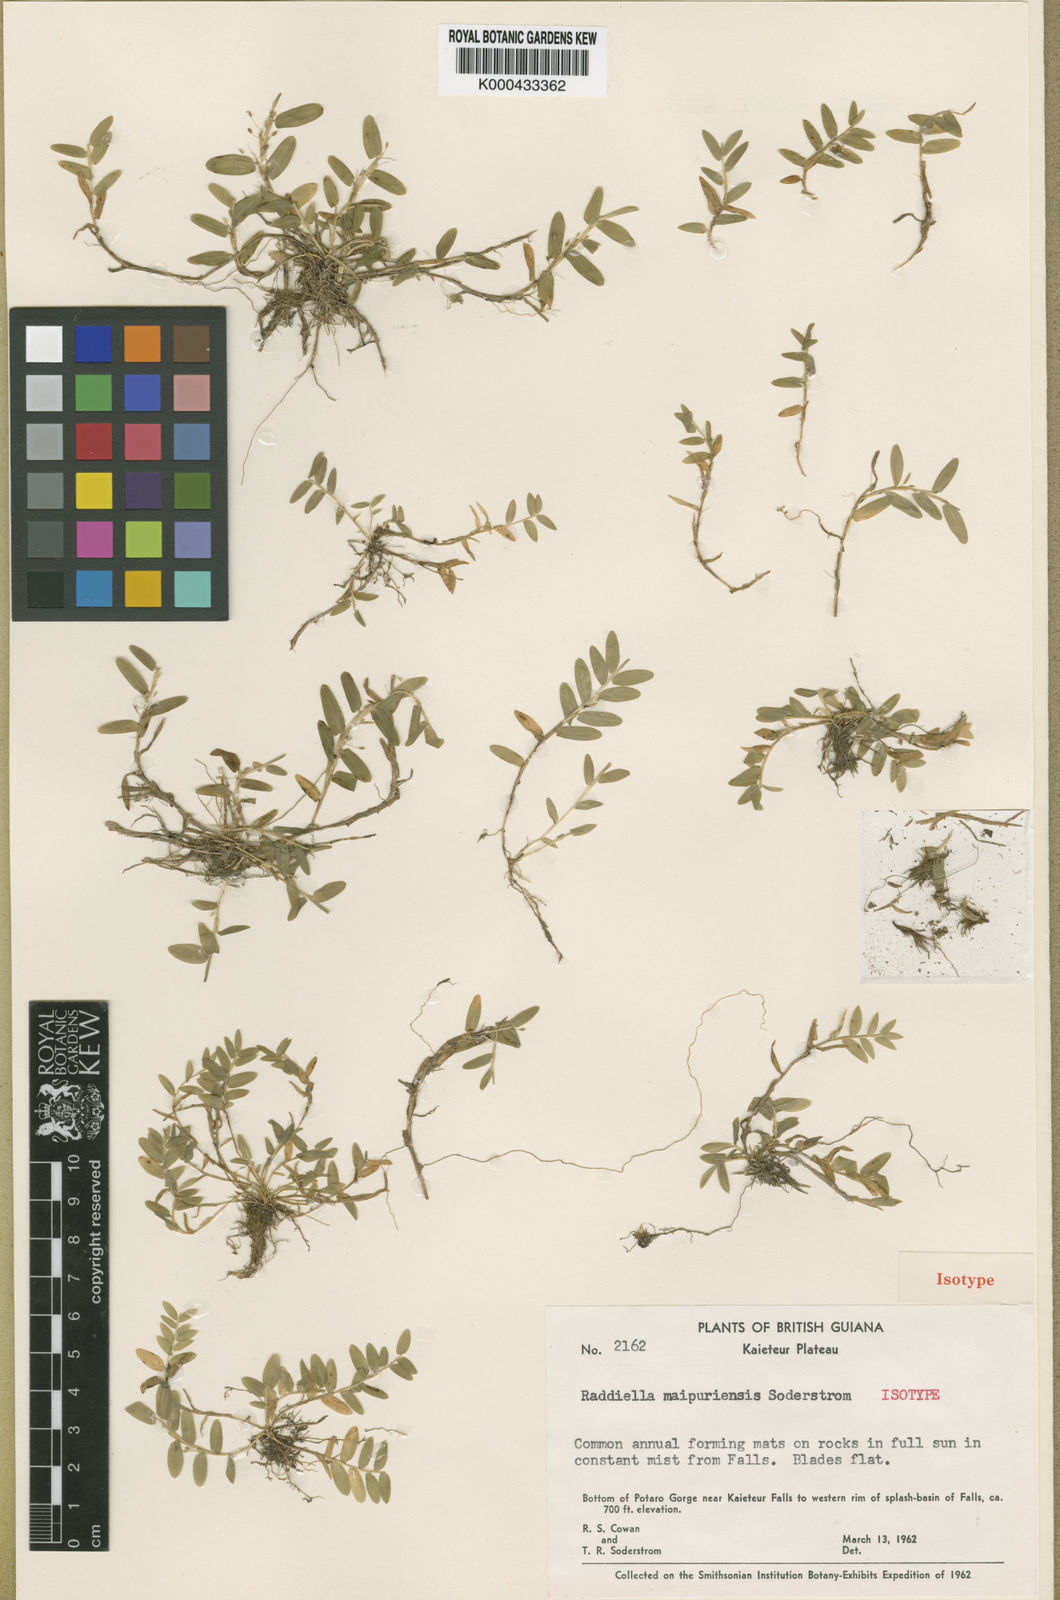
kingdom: Plantae
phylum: Tracheophyta
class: Liliopsida
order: Poales
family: Poaceae
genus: Raddiella
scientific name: Raddiella potaroensis
